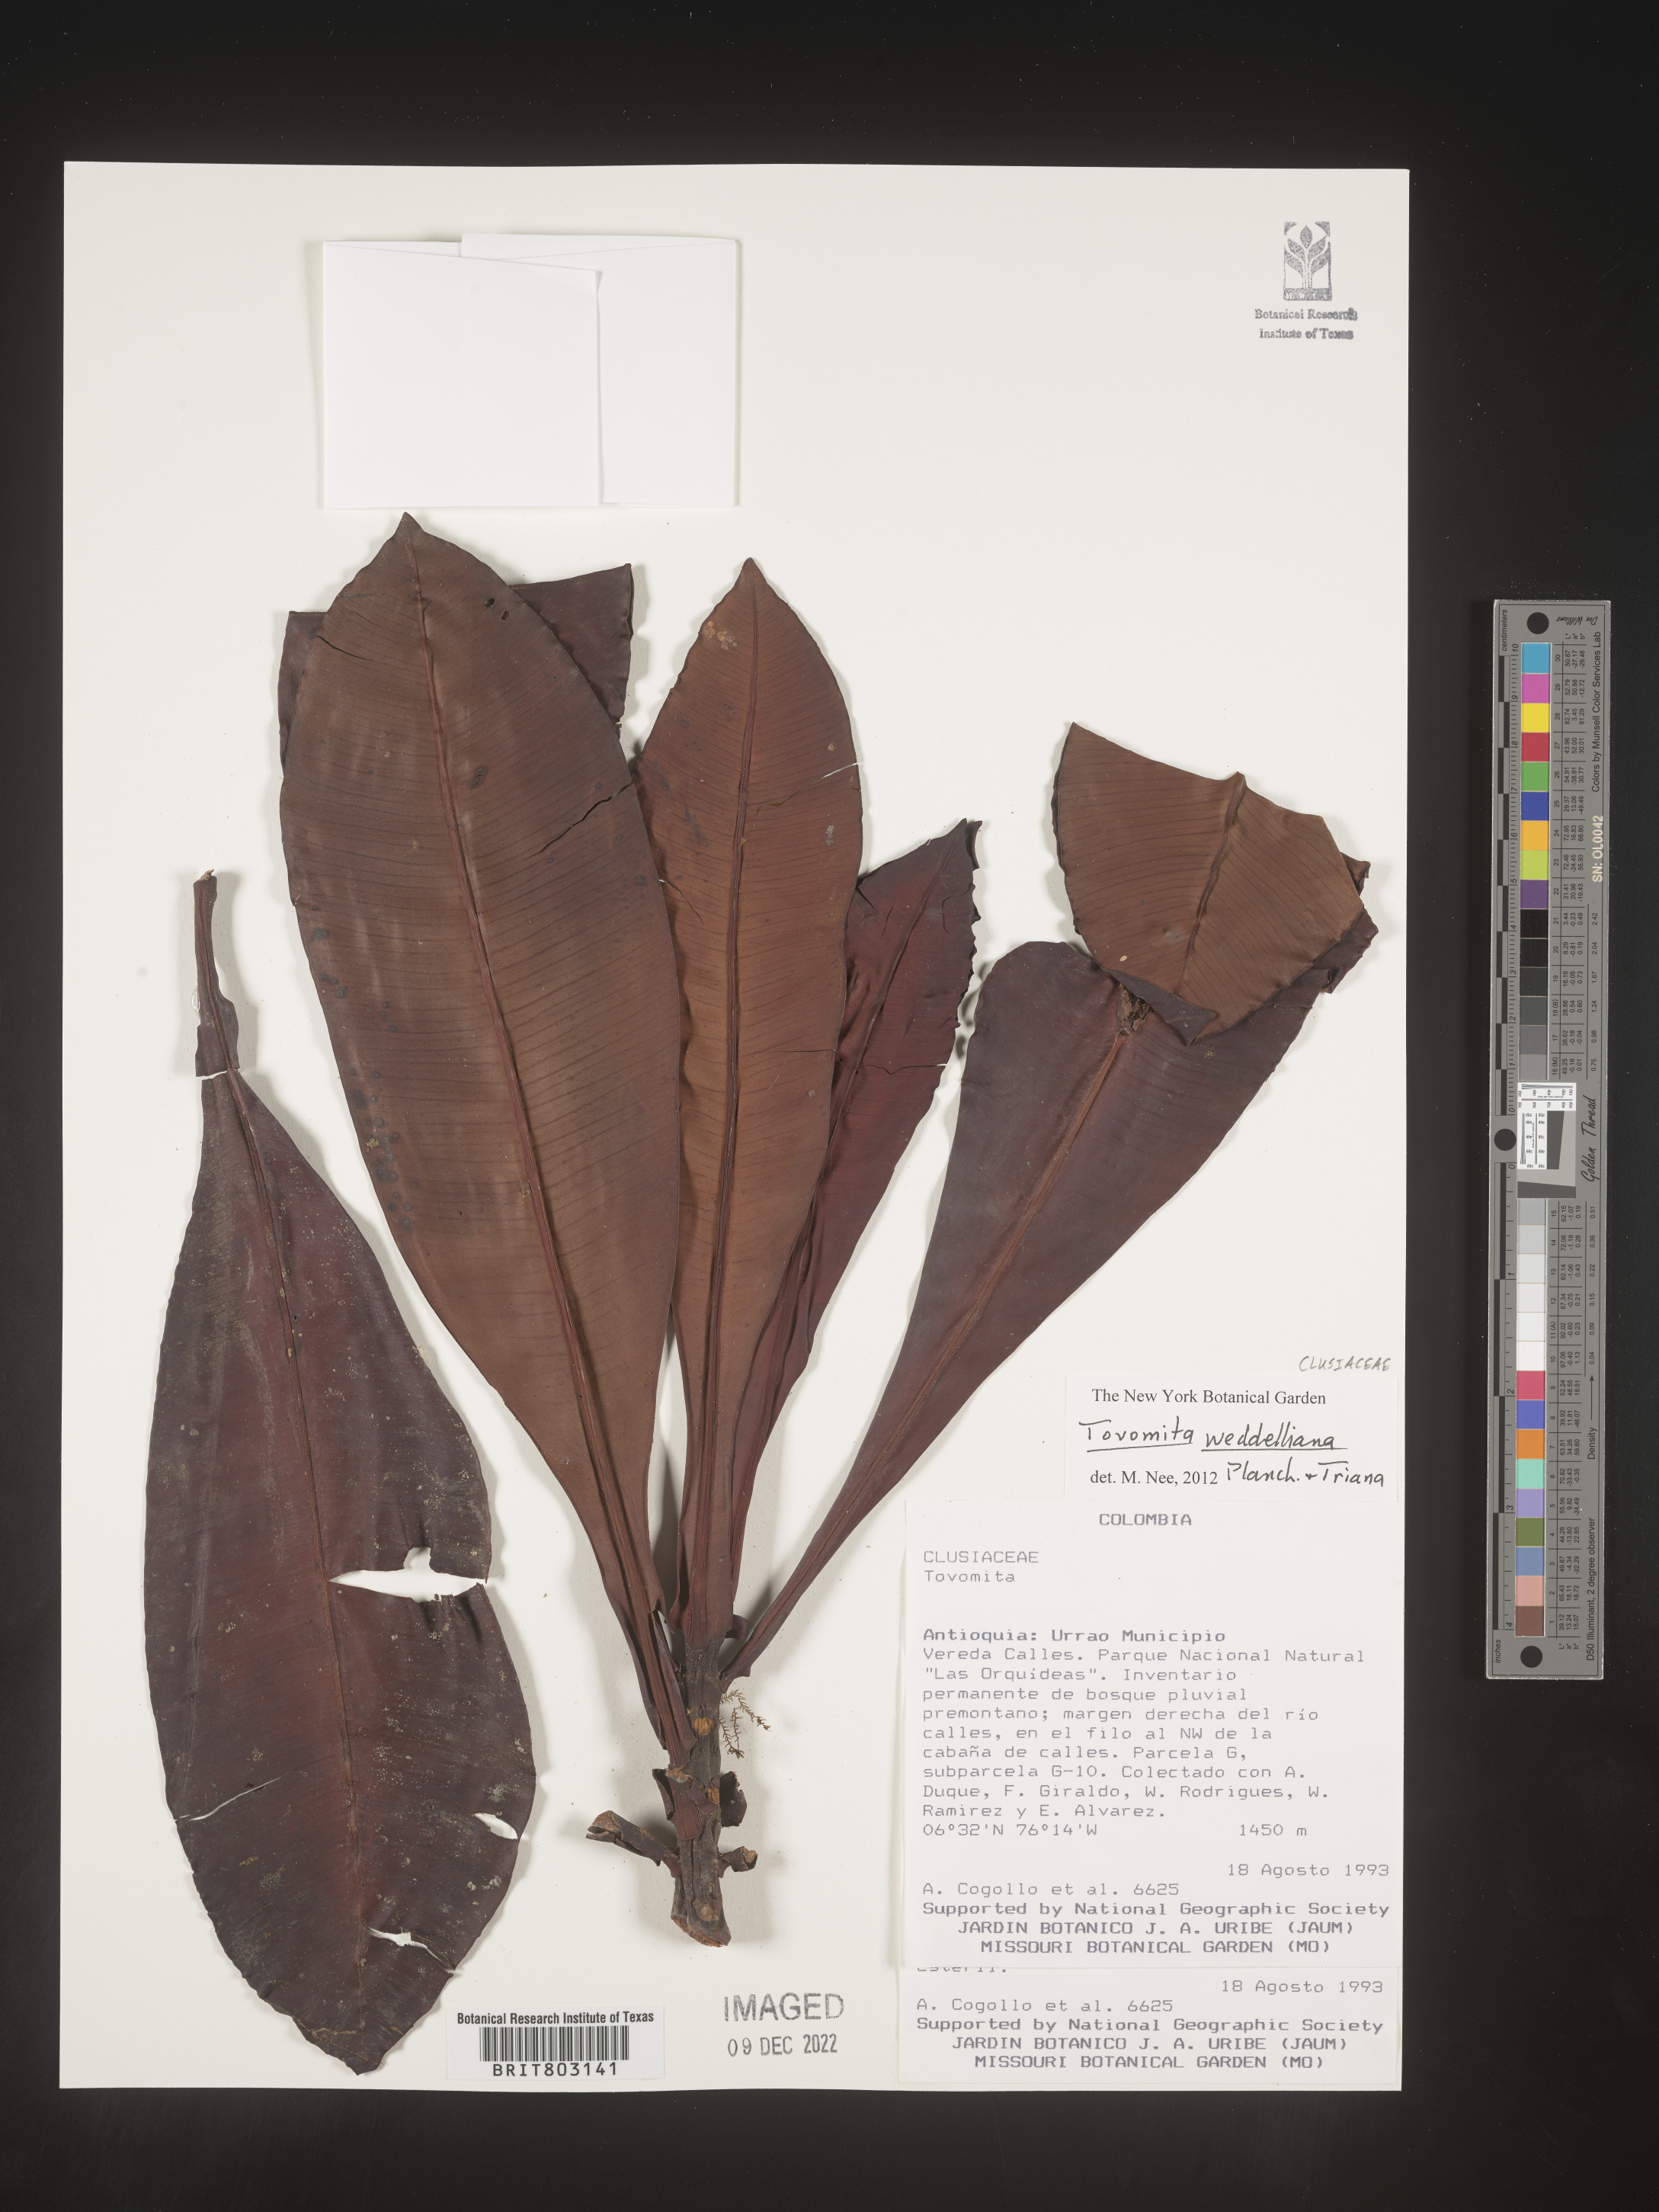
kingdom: Plantae
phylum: Tracheophyta
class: Magnoliopsida
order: Malpighiales
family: Clusiaceae
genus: Arawakia
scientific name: Arawakia weddelliana
